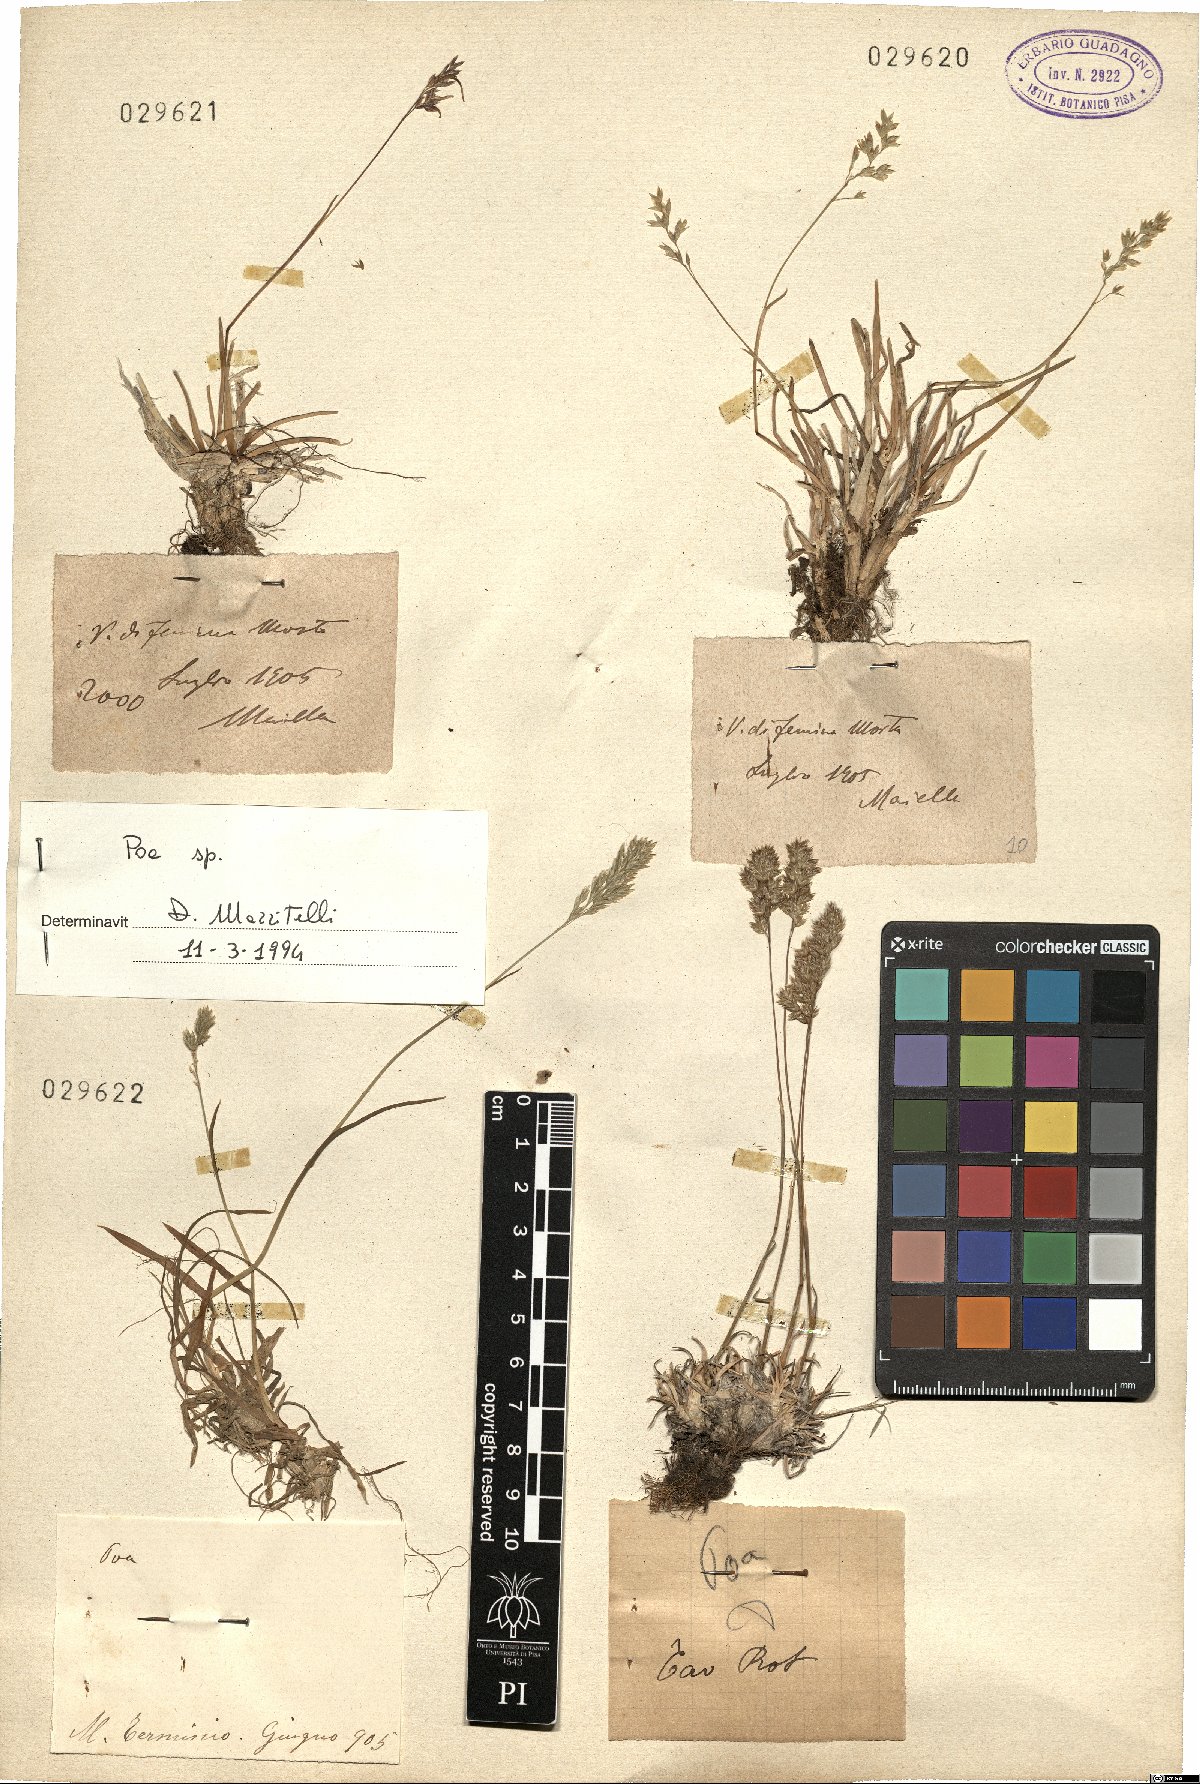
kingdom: Plantae
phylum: Tracheophyta
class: Liliopsida
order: Poales
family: Poaceae
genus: Poa
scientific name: Poa
